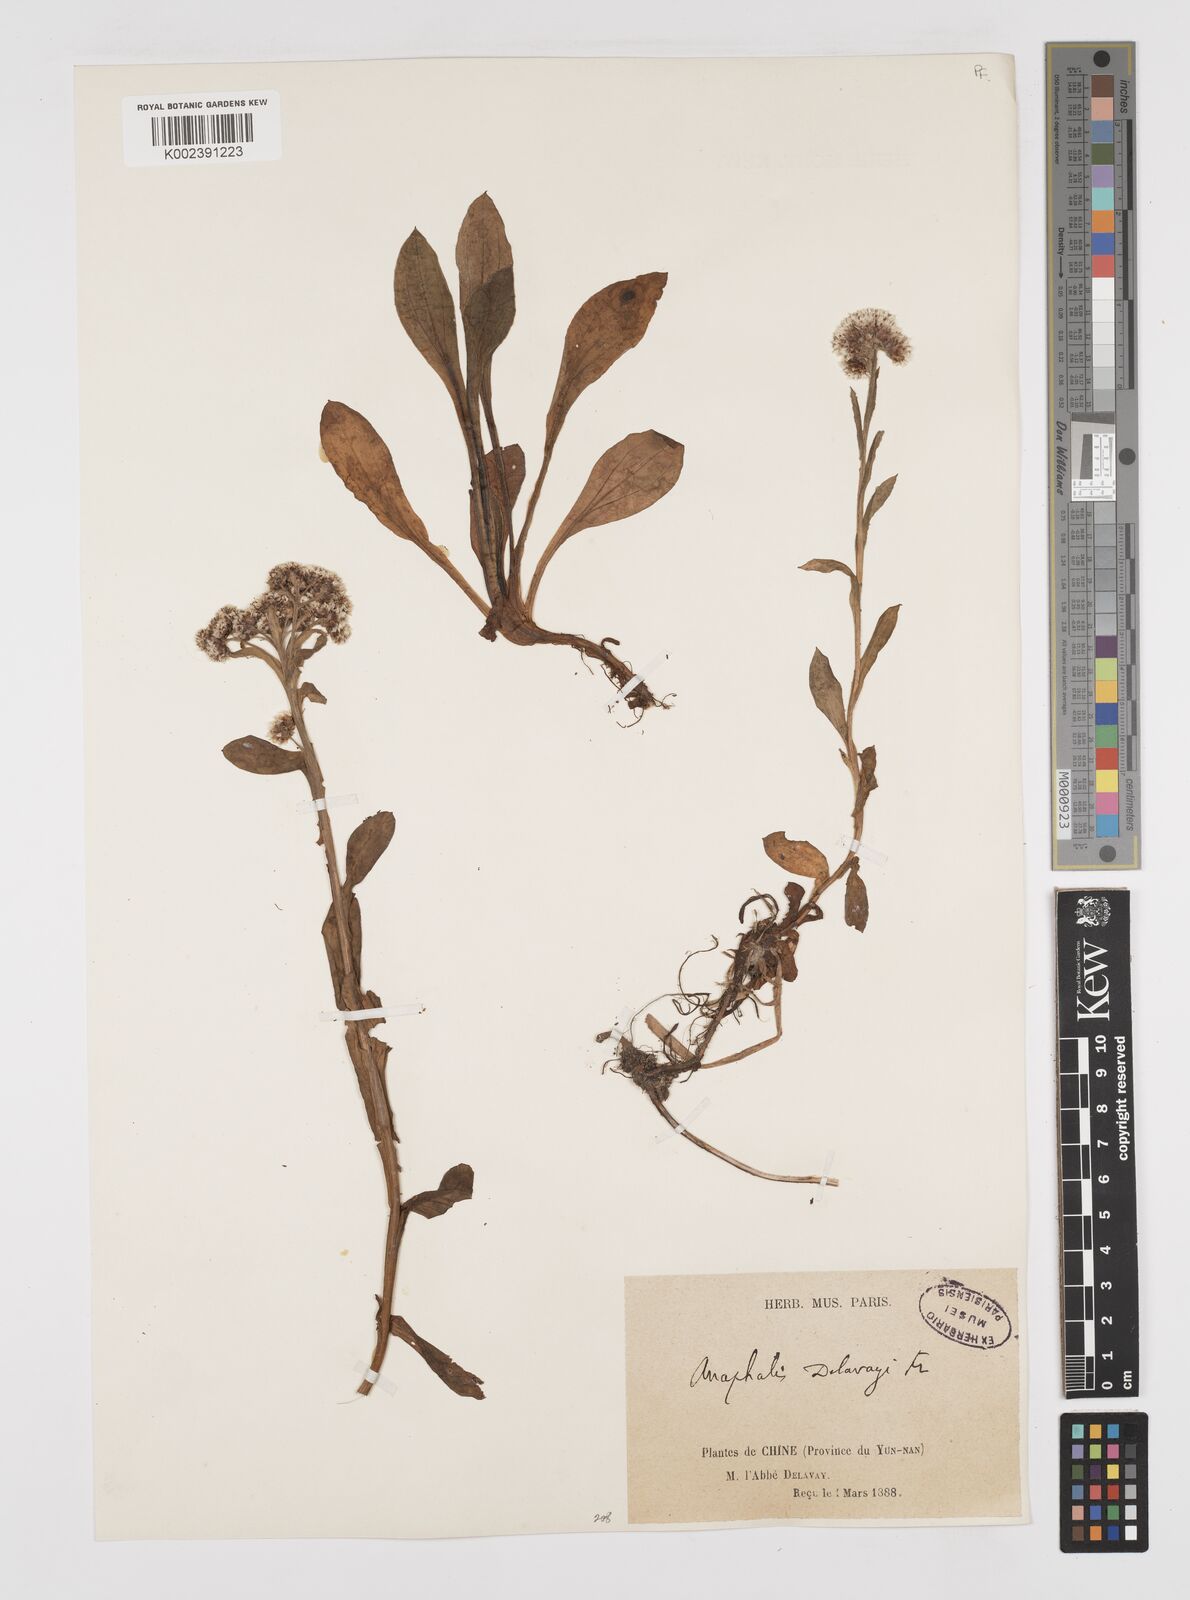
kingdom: Plantae
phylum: Tracheophyta
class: Magnoliopsida
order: Asterales
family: Asteraceae
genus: Anaphalis
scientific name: Anaphalis delavayi
